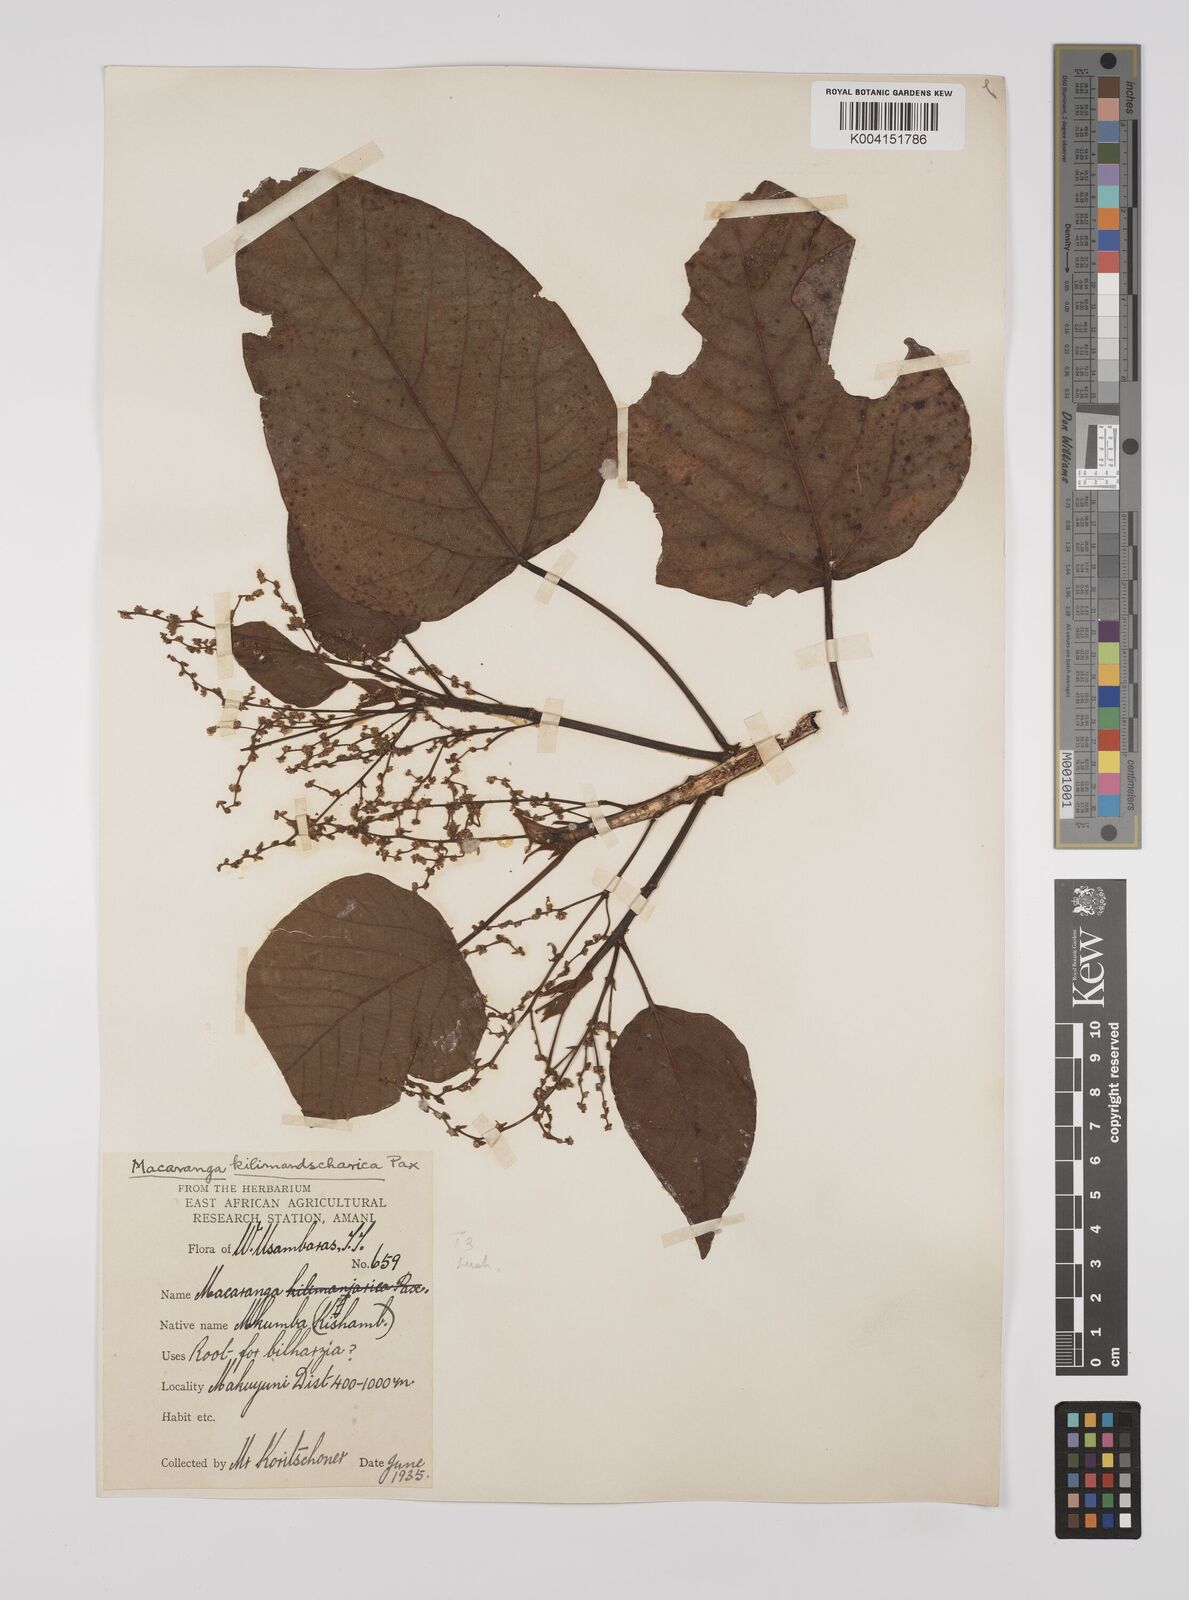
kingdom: Plantae
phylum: Tracheophyta
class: Magnoliopsida
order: Malpighiales
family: Euphorbiaceae
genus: Macaranga
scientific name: Macaranga capensis
